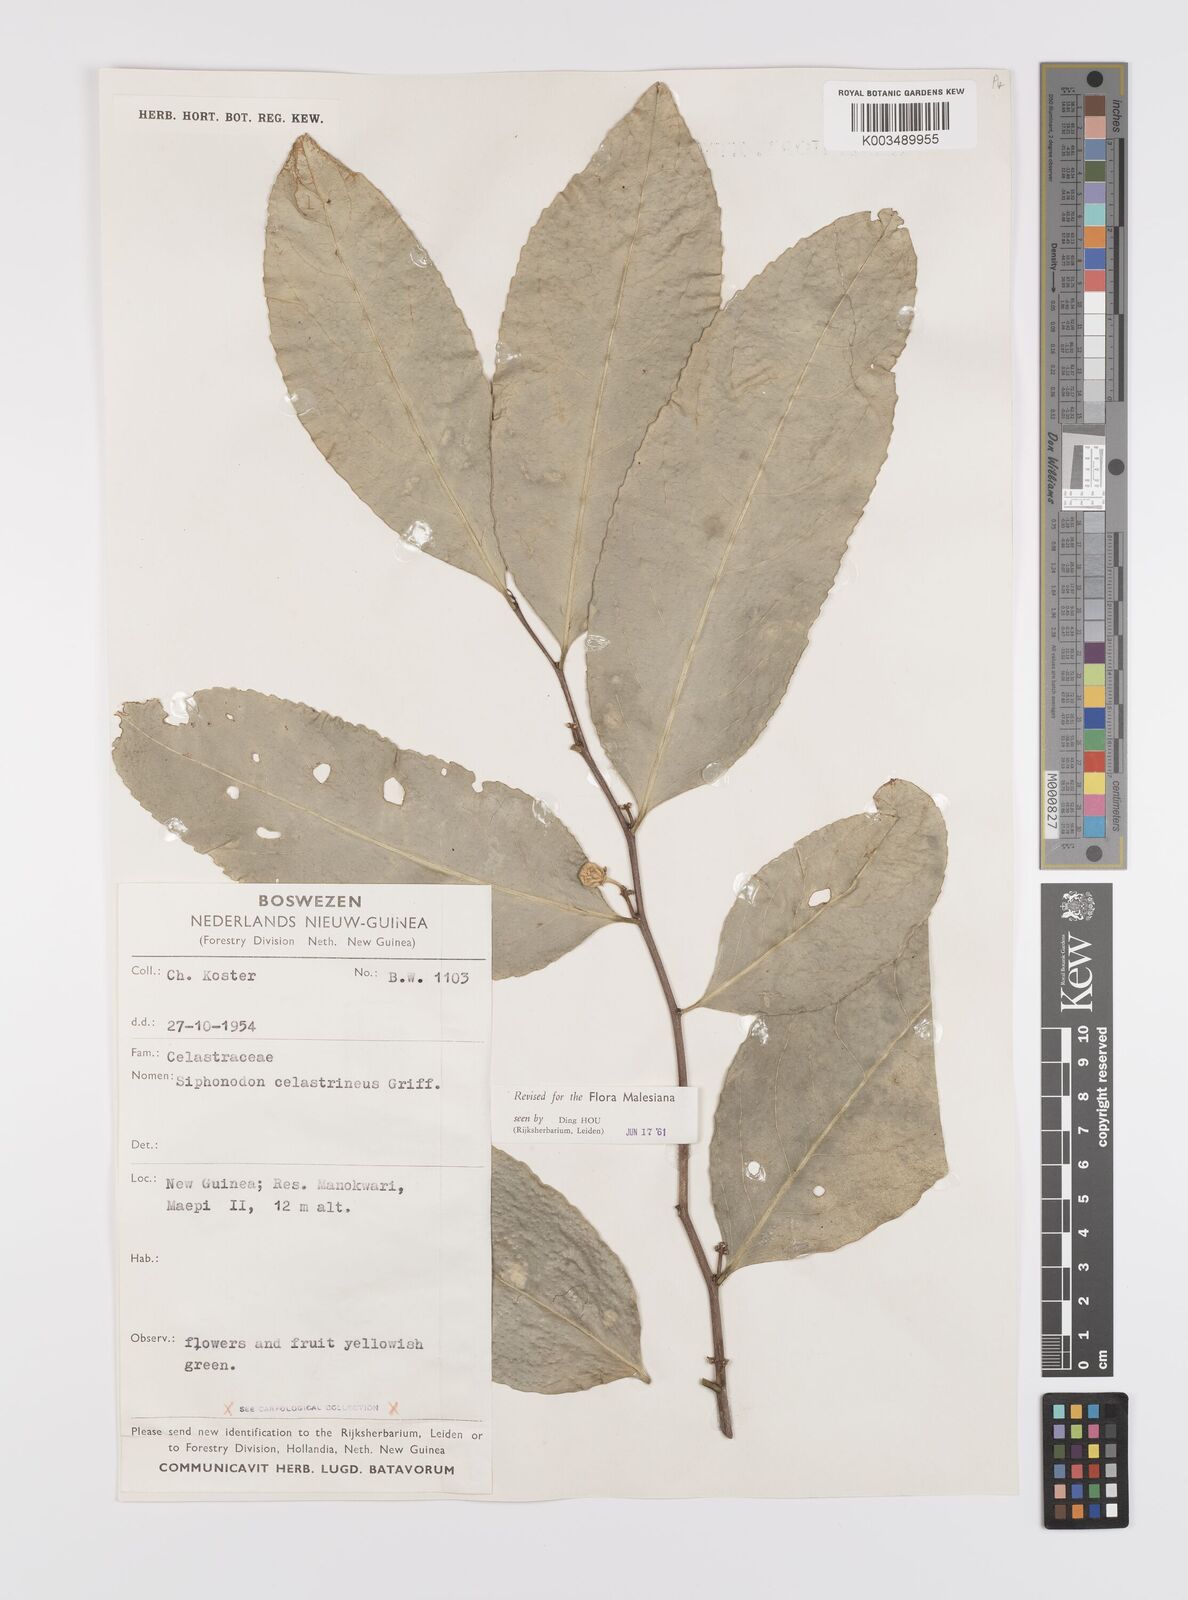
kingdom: Plantae
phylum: Tracheophyta
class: Magnoliopsida
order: Celastrales
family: Celastraceae
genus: Siphonodon
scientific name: Siphonodon celastrineus
